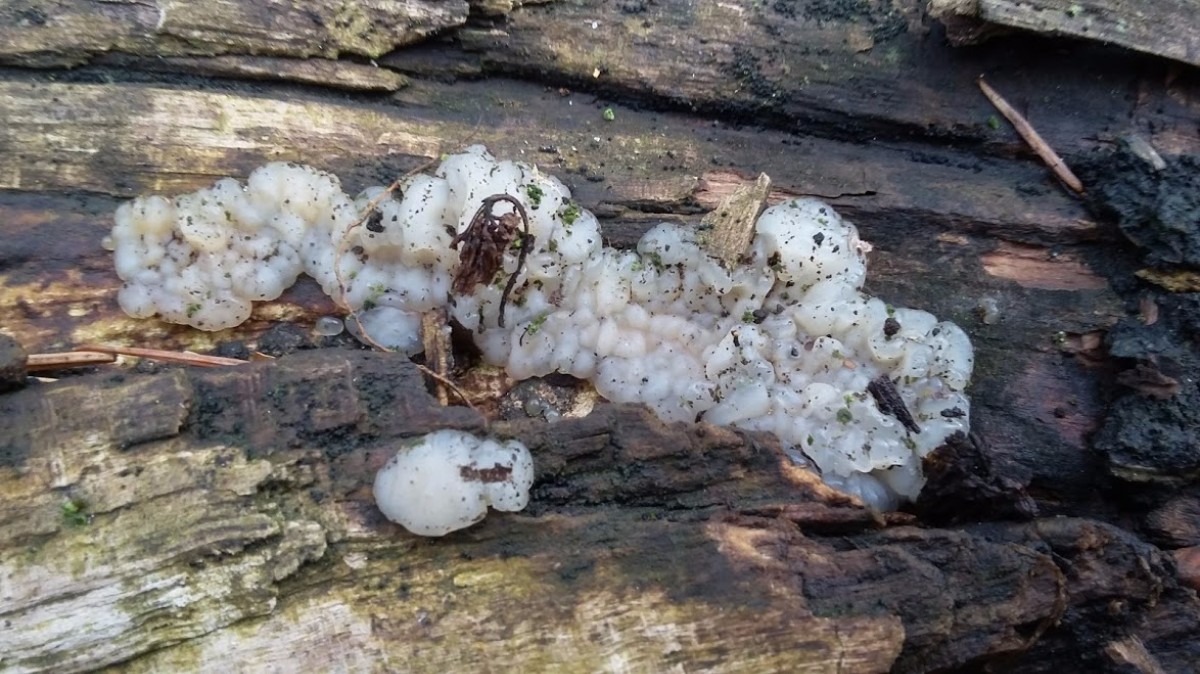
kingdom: Fungi
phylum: Basidiomycota
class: Agaricomycetes
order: Auriculariales
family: Auriculariaceae
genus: Exidia
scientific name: Exidia thuretiana
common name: hvidlig bævretop
